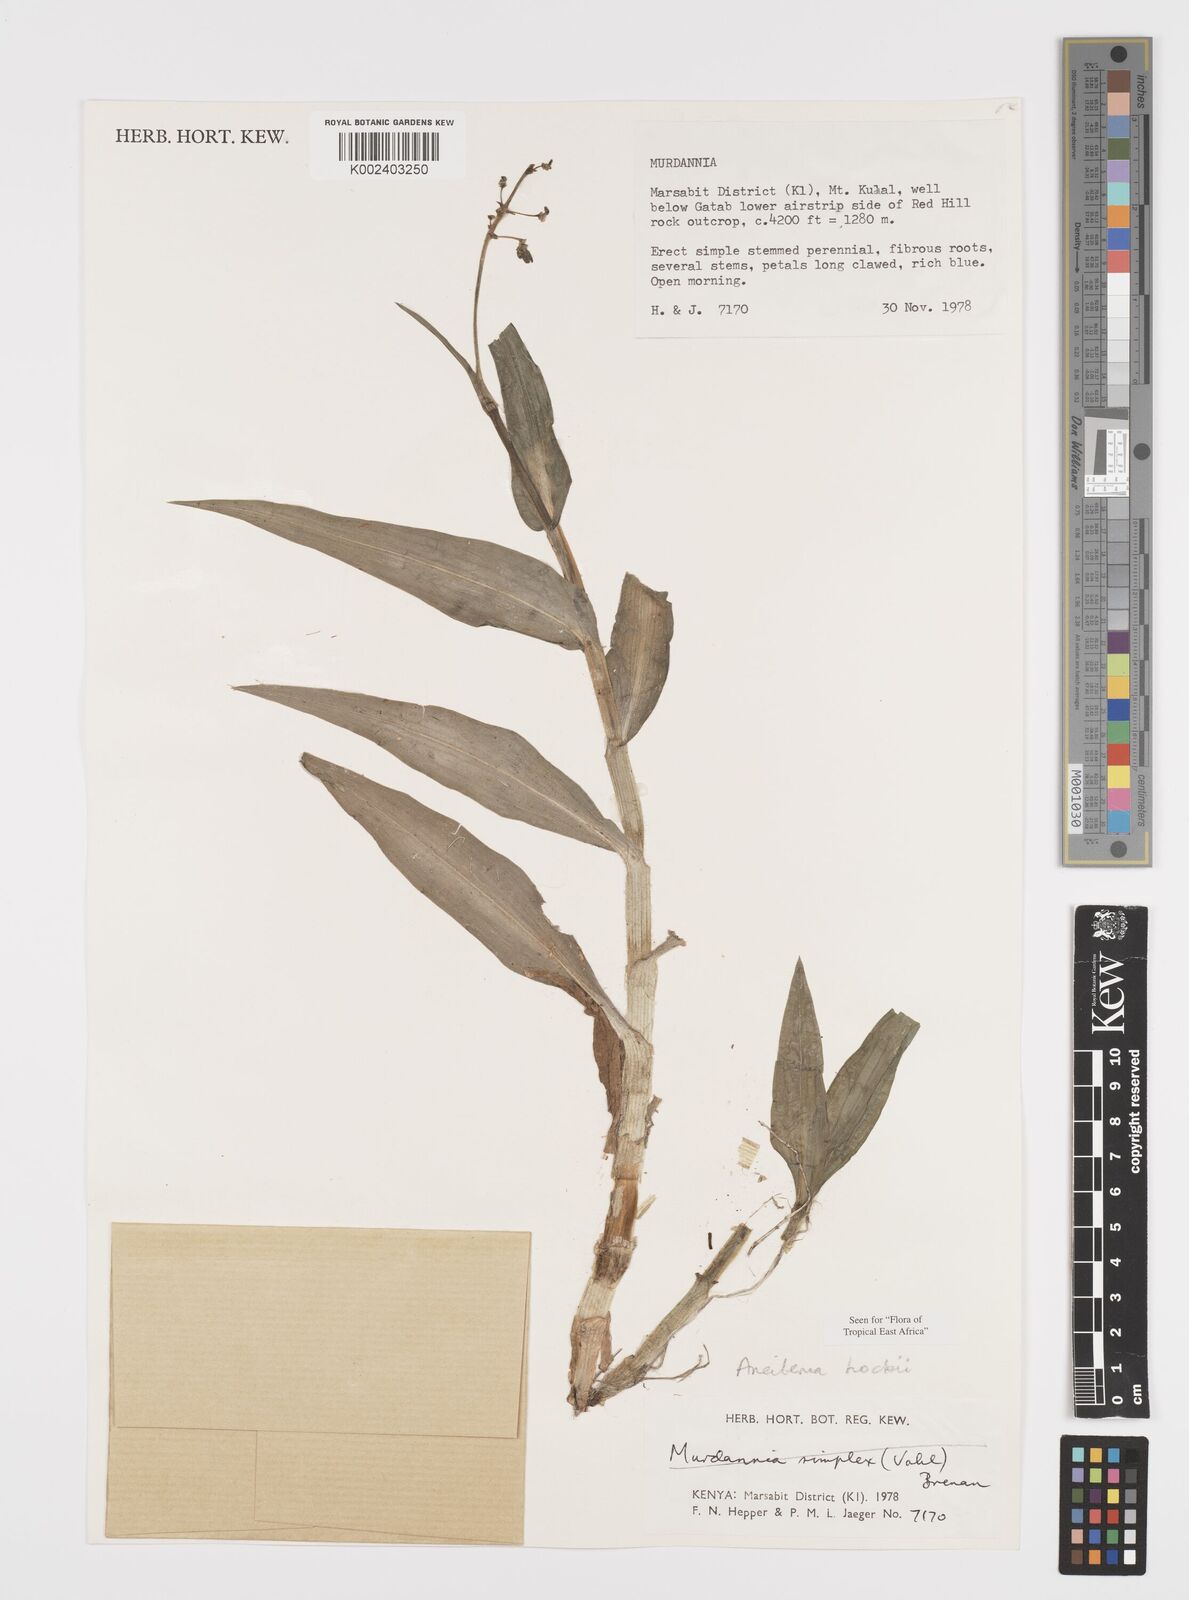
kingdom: Plantae
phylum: Tracheophyta
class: Liliopsida
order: Commelinales
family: Commelinaceae
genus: Aneilema
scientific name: Aneilema hockii
